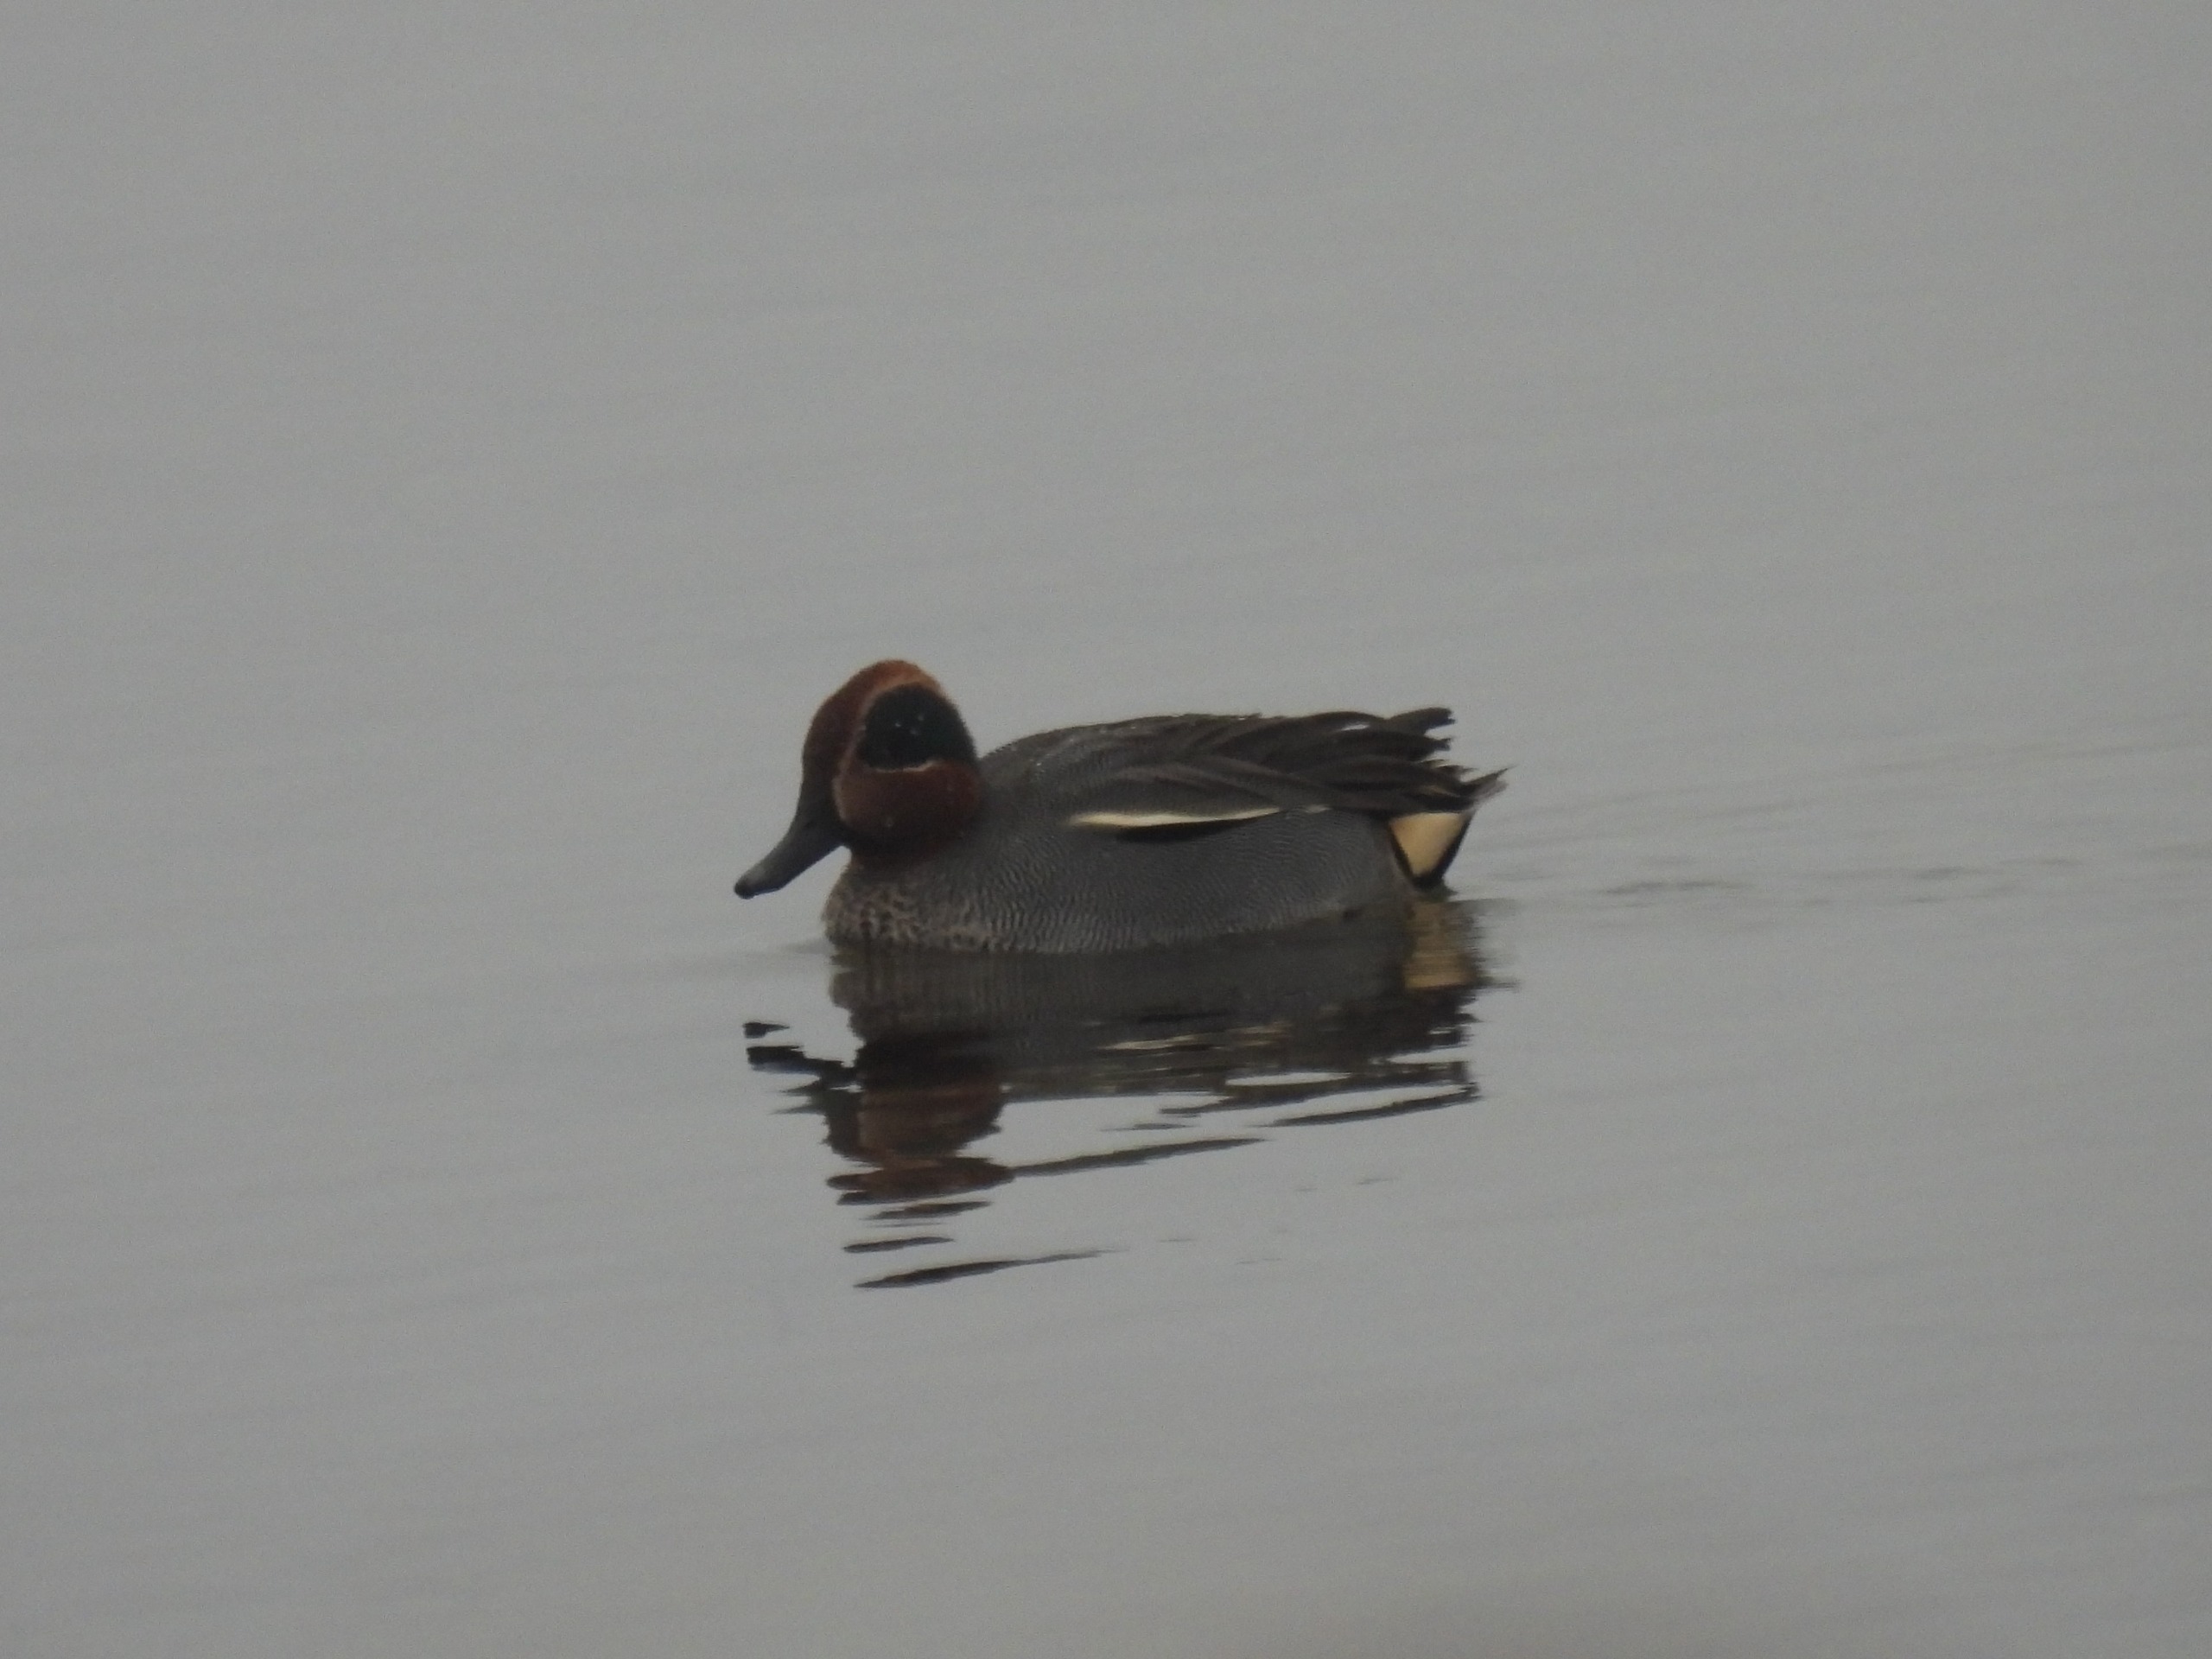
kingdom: Animalia
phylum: Chordata
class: Aves
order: Anseriformes
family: Anatidae
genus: Anas
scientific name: Anas crecca
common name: Krikand
